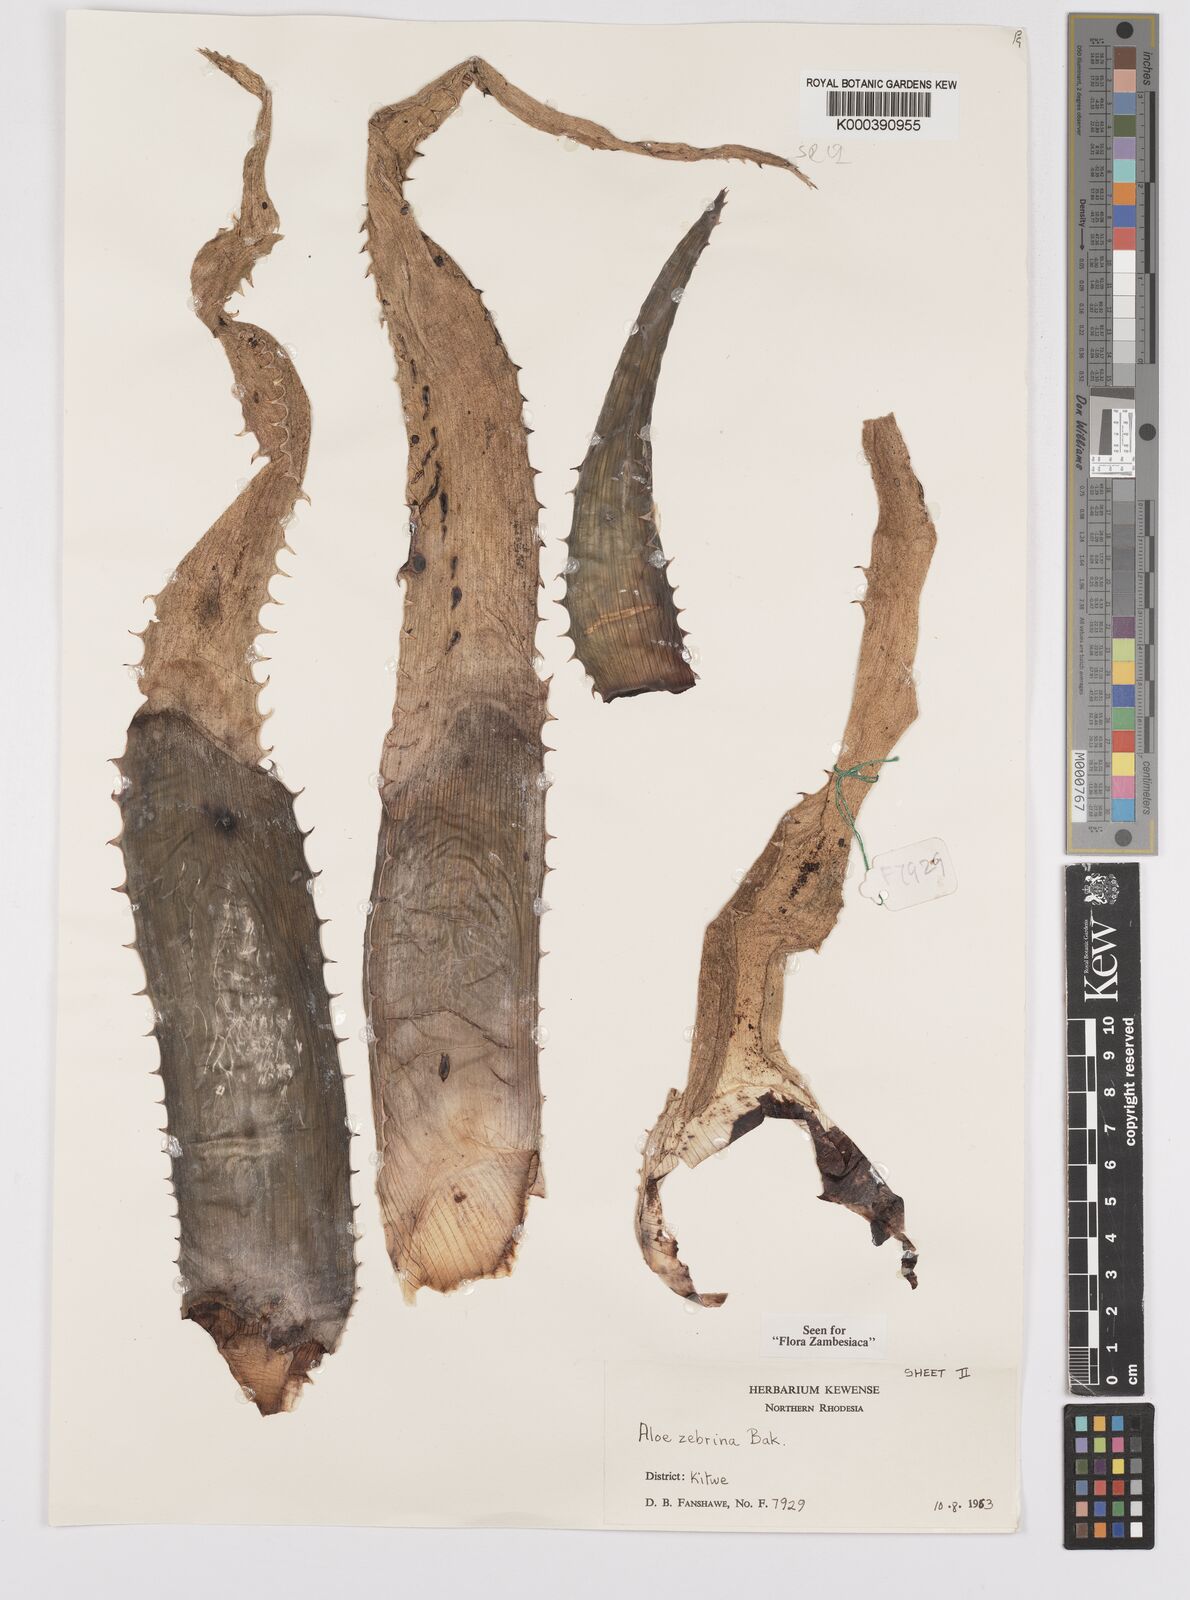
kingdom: Plantae
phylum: Tracheophyta
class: Liliopsida
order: Asparagales
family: Asphodelaceae
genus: Aloe
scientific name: Aloe zebrina
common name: Zebra-leaf aloe
